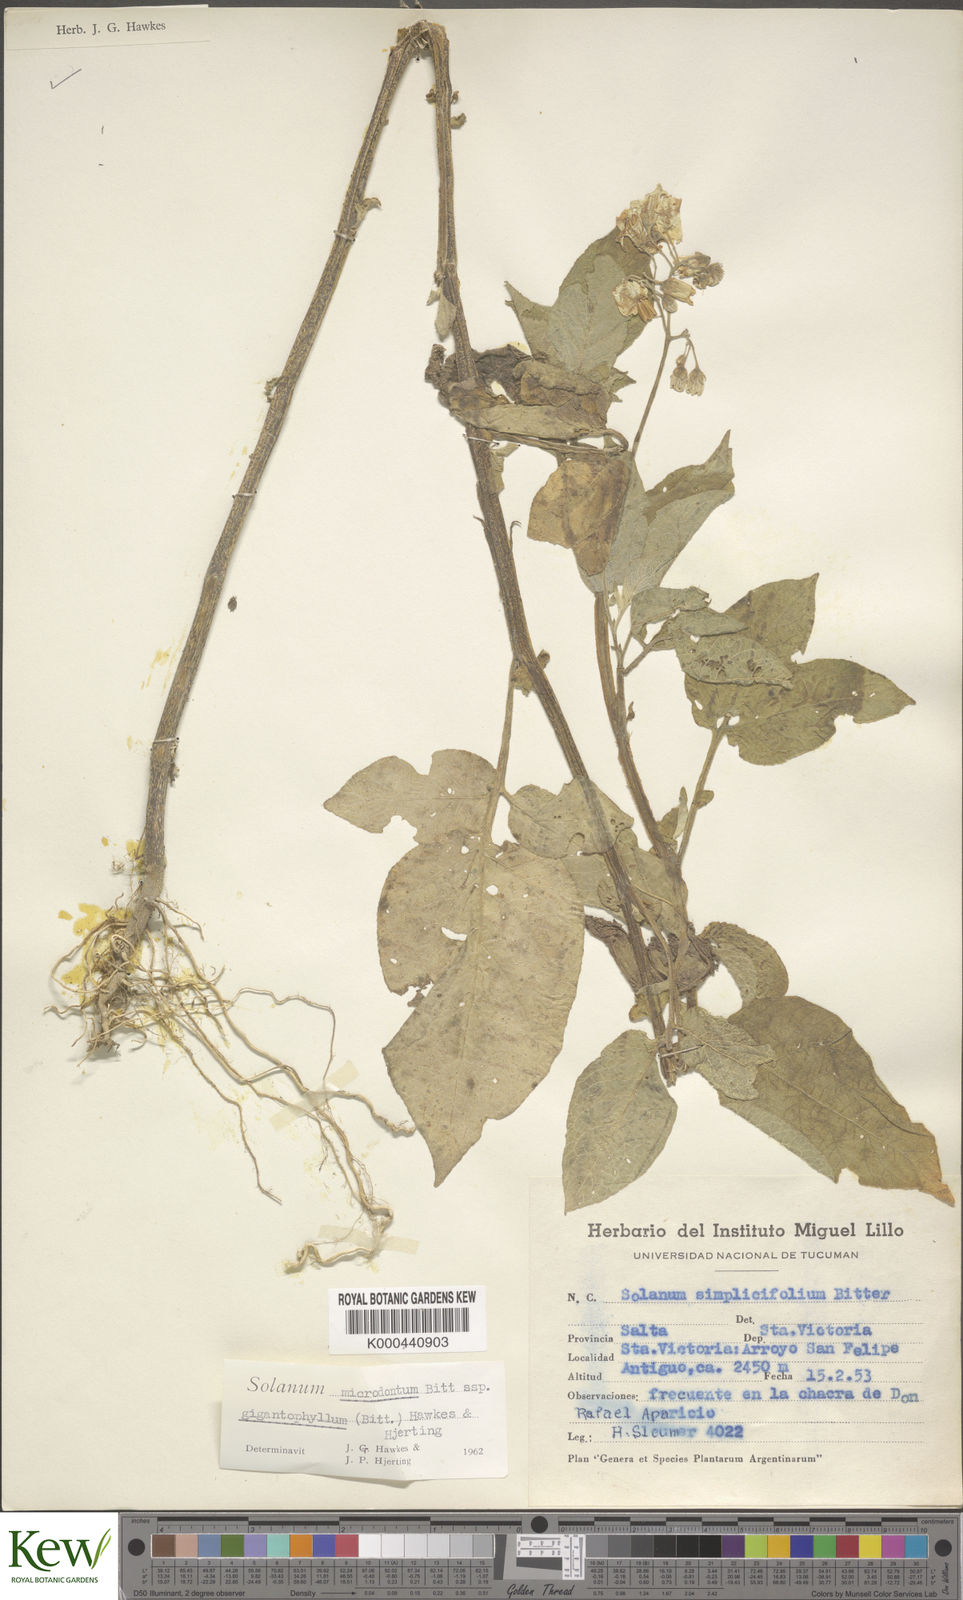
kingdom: Plantae
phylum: Tracheophyta
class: Magnoliopsida
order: Solanales
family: Solanaceae
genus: Solanum
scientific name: Solanum microdontum
